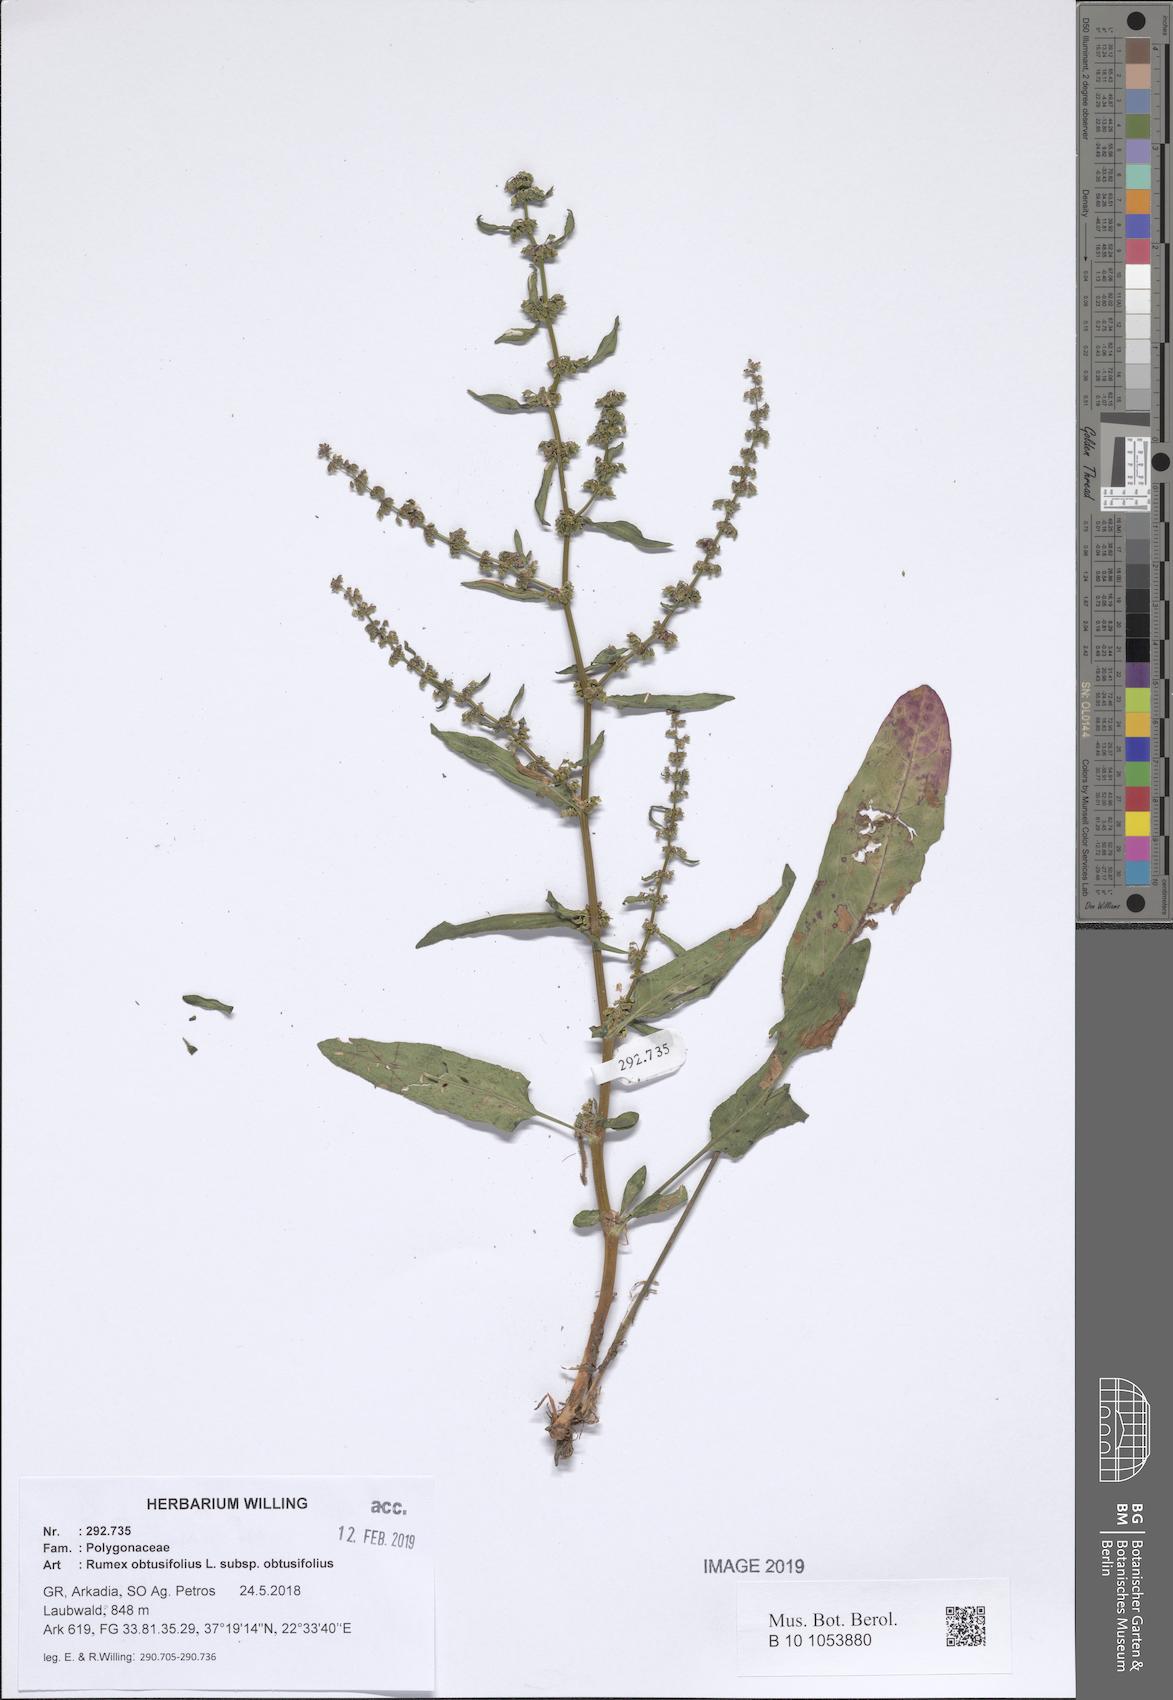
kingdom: Plantae
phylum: Tracheophyta
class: Magnoliopsida
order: Caryophyllales
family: Polygonaceae
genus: Rumex
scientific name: Rumex obtusifolius
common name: Bitter dock
